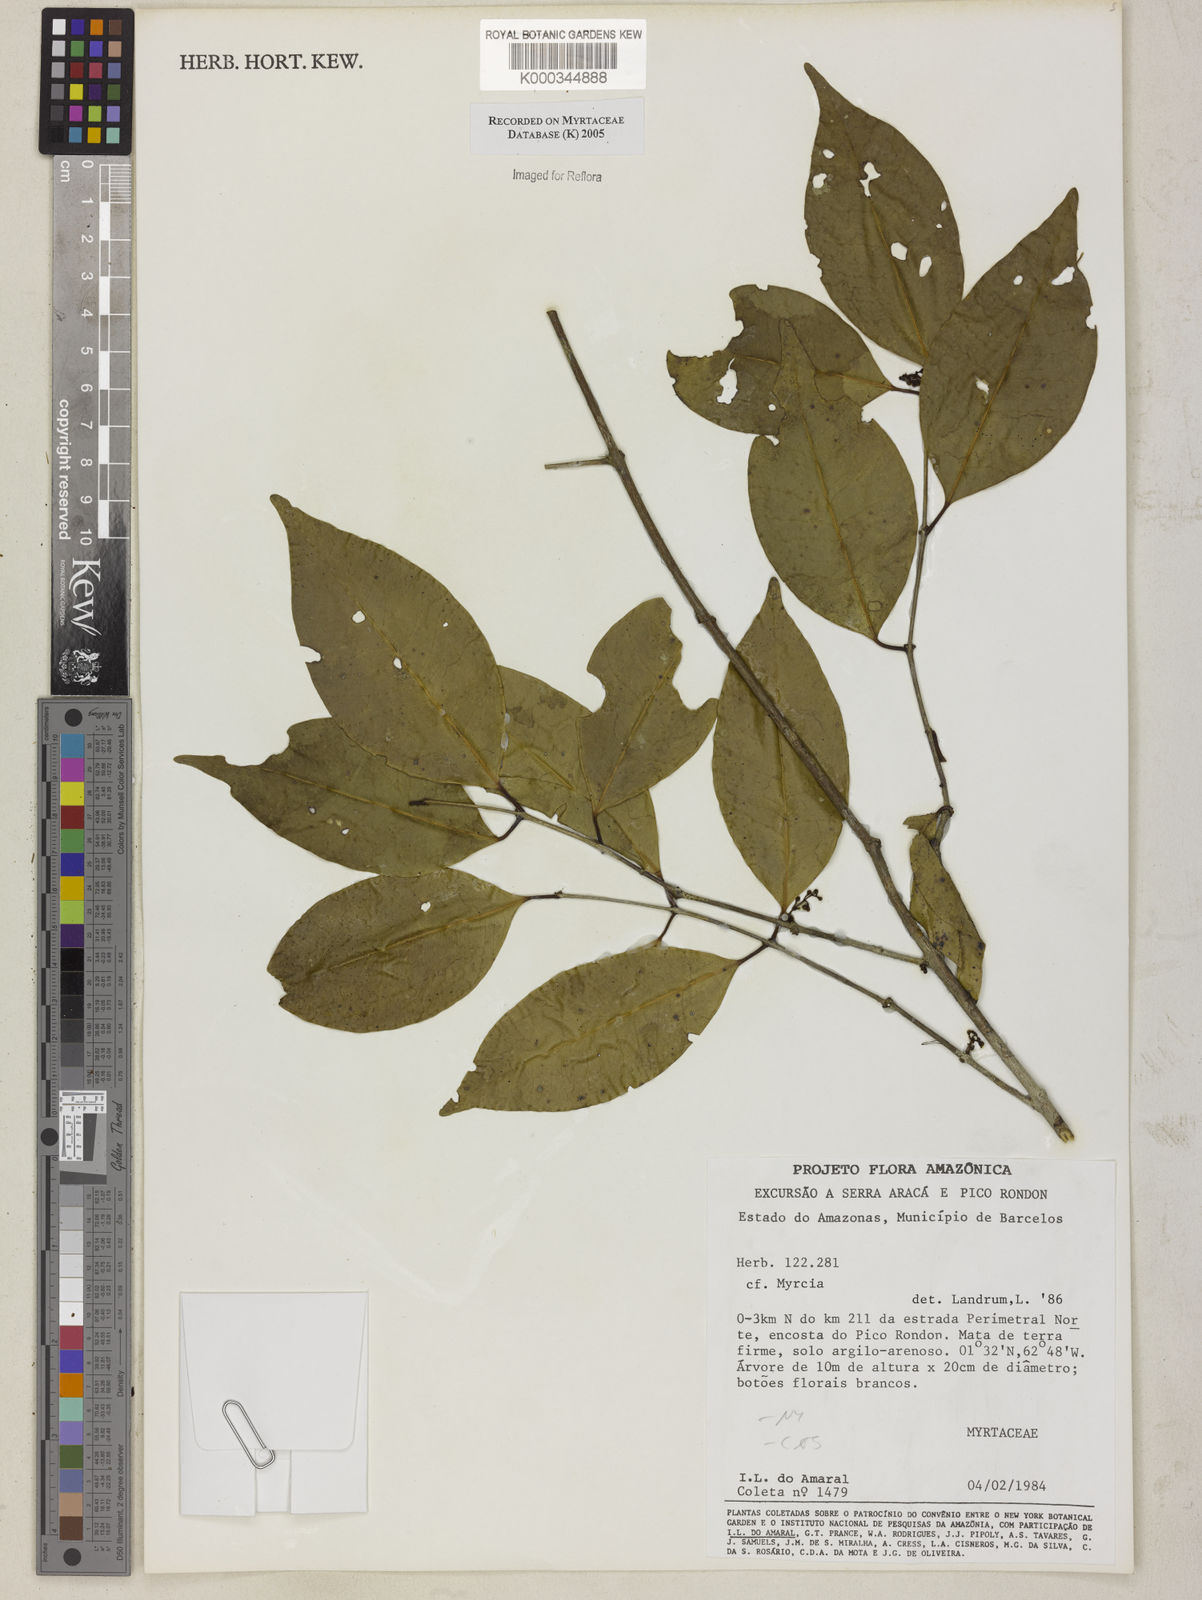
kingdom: Plantae
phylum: Tracheophyta
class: Magnoliopsida
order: Myrtales
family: Myrtaceae
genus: Myrcia
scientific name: Myrcia
